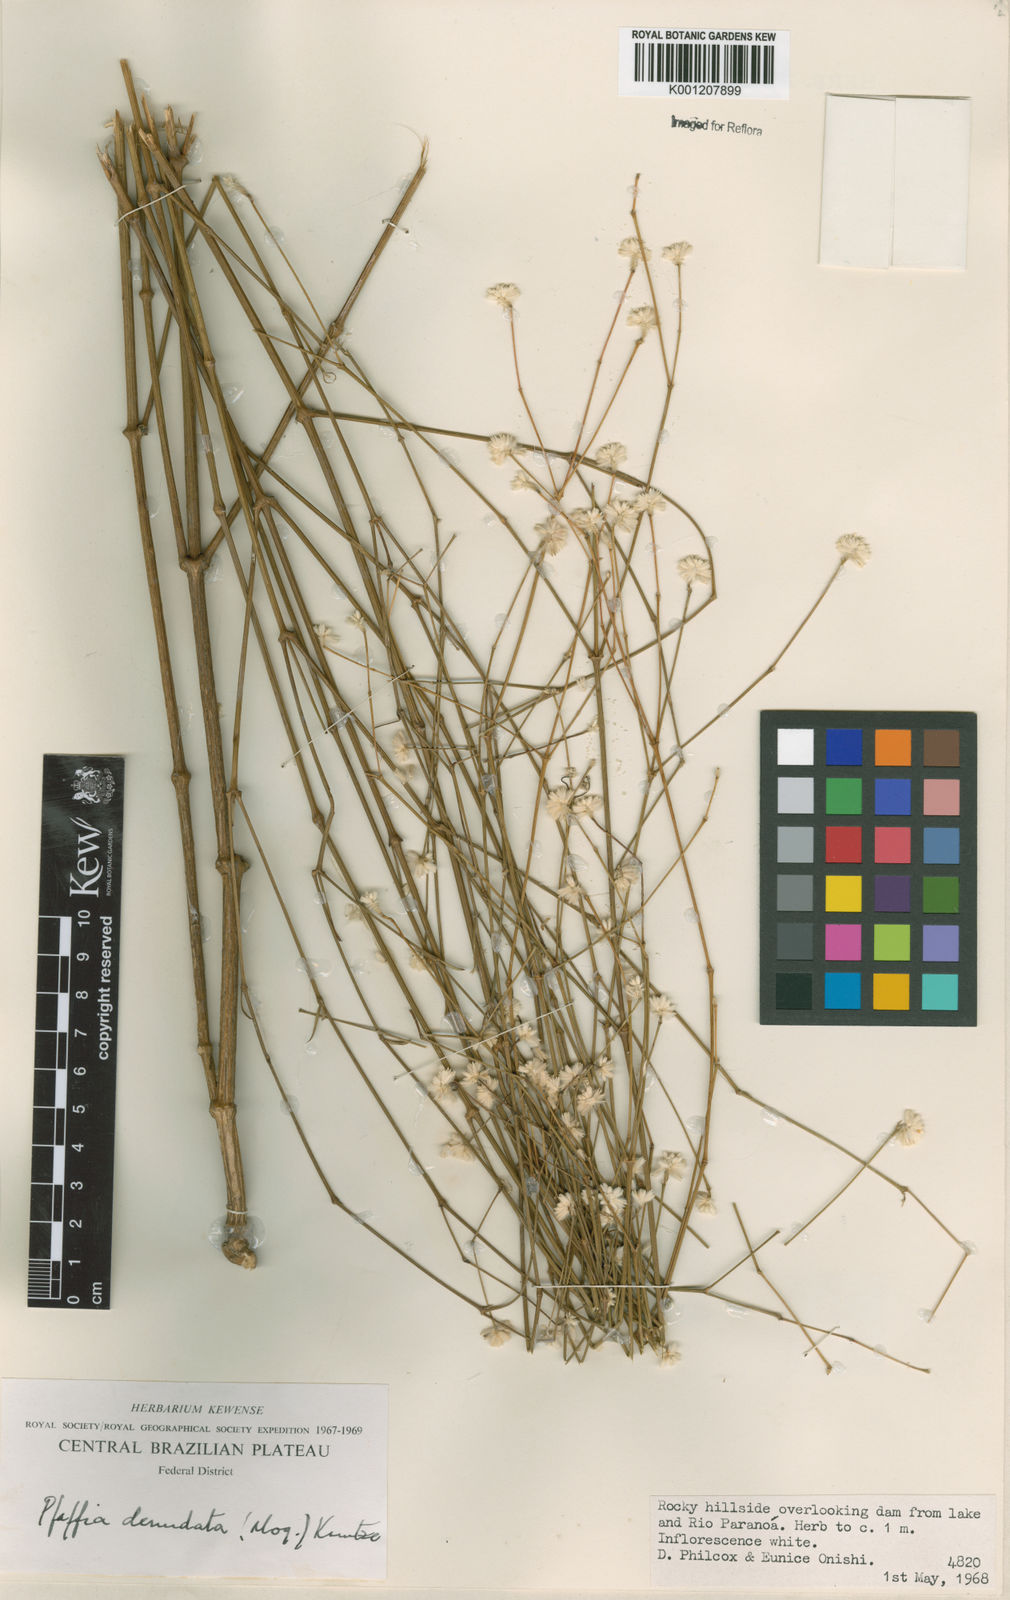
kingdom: Plantae
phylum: Tracheophyta
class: Magnoliopsida
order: Caryophyllales
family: Amaranthaceae
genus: Pfaffia
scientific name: Pfaffia denudata
